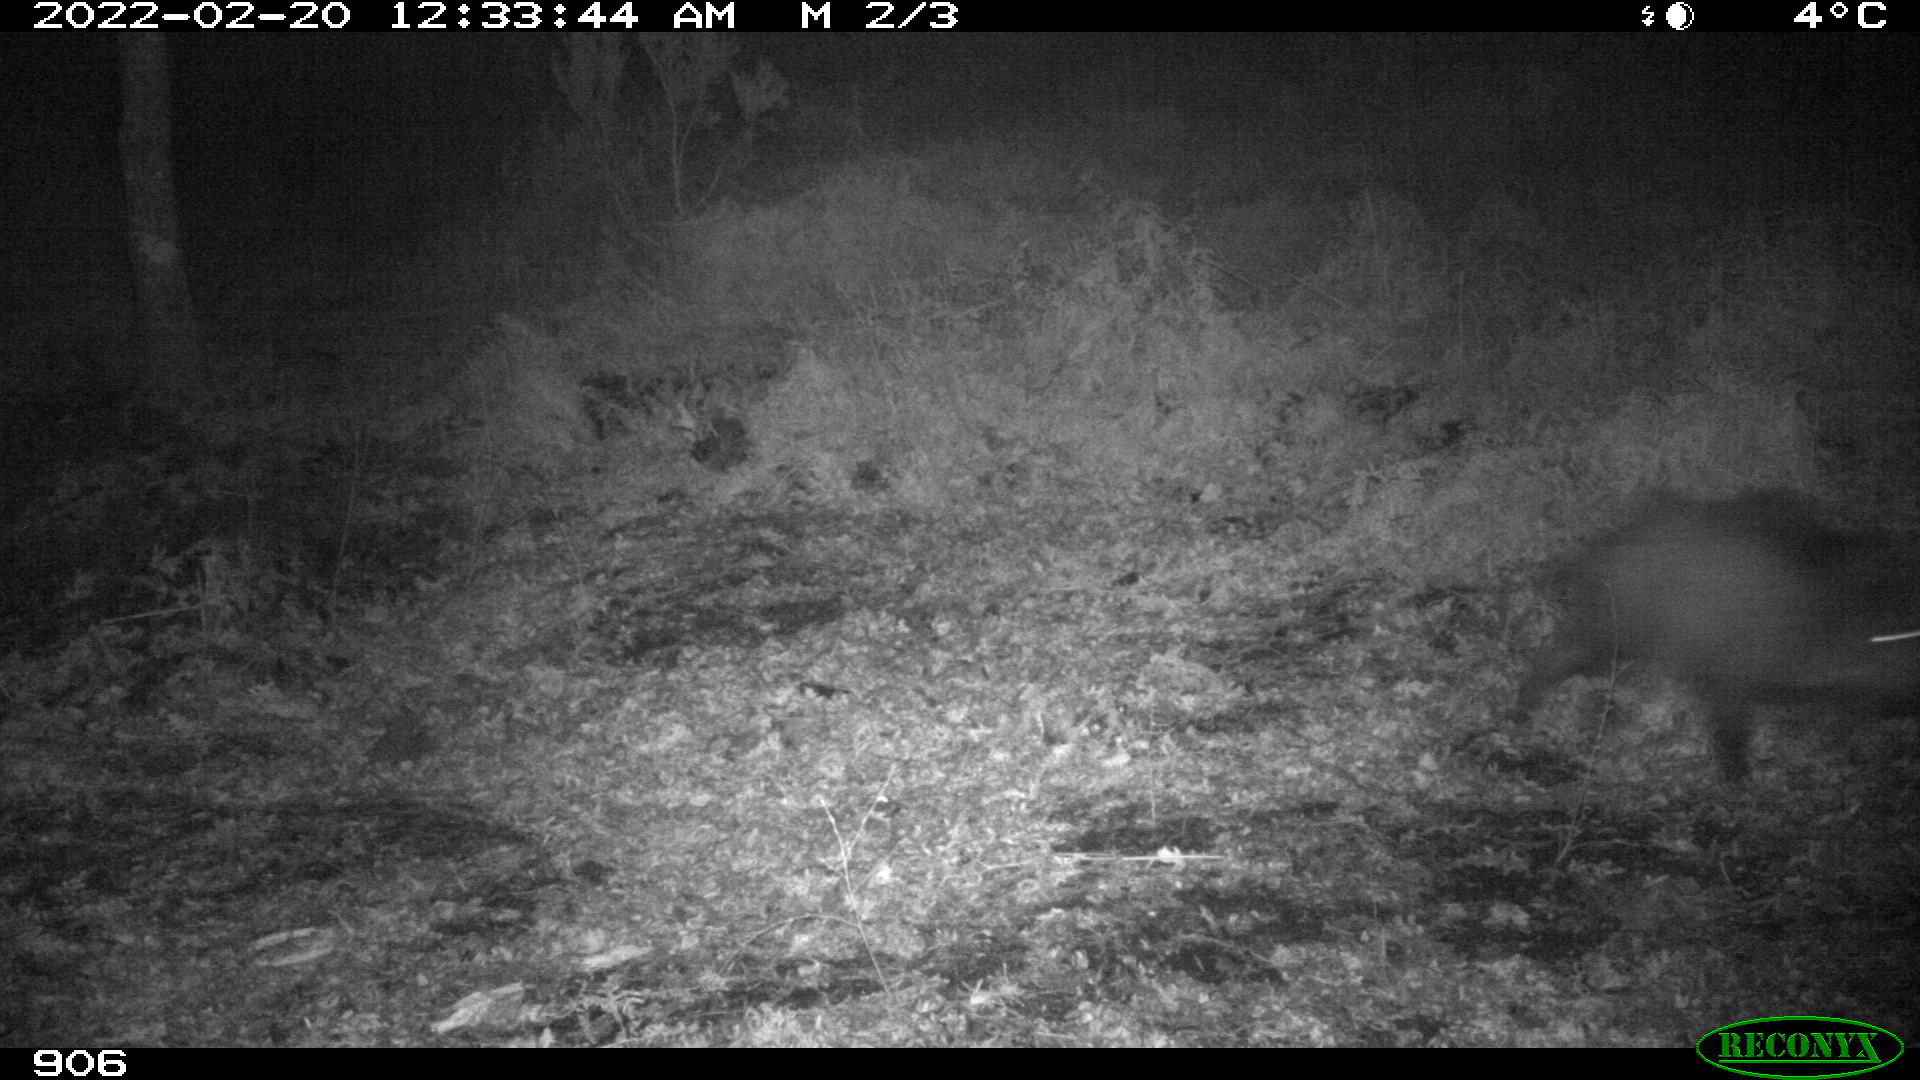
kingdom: Animalia
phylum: Chordata
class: Mammalia
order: Artiodactyla
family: Suidae
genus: Sus
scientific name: Sus scrofa
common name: Wild boar
